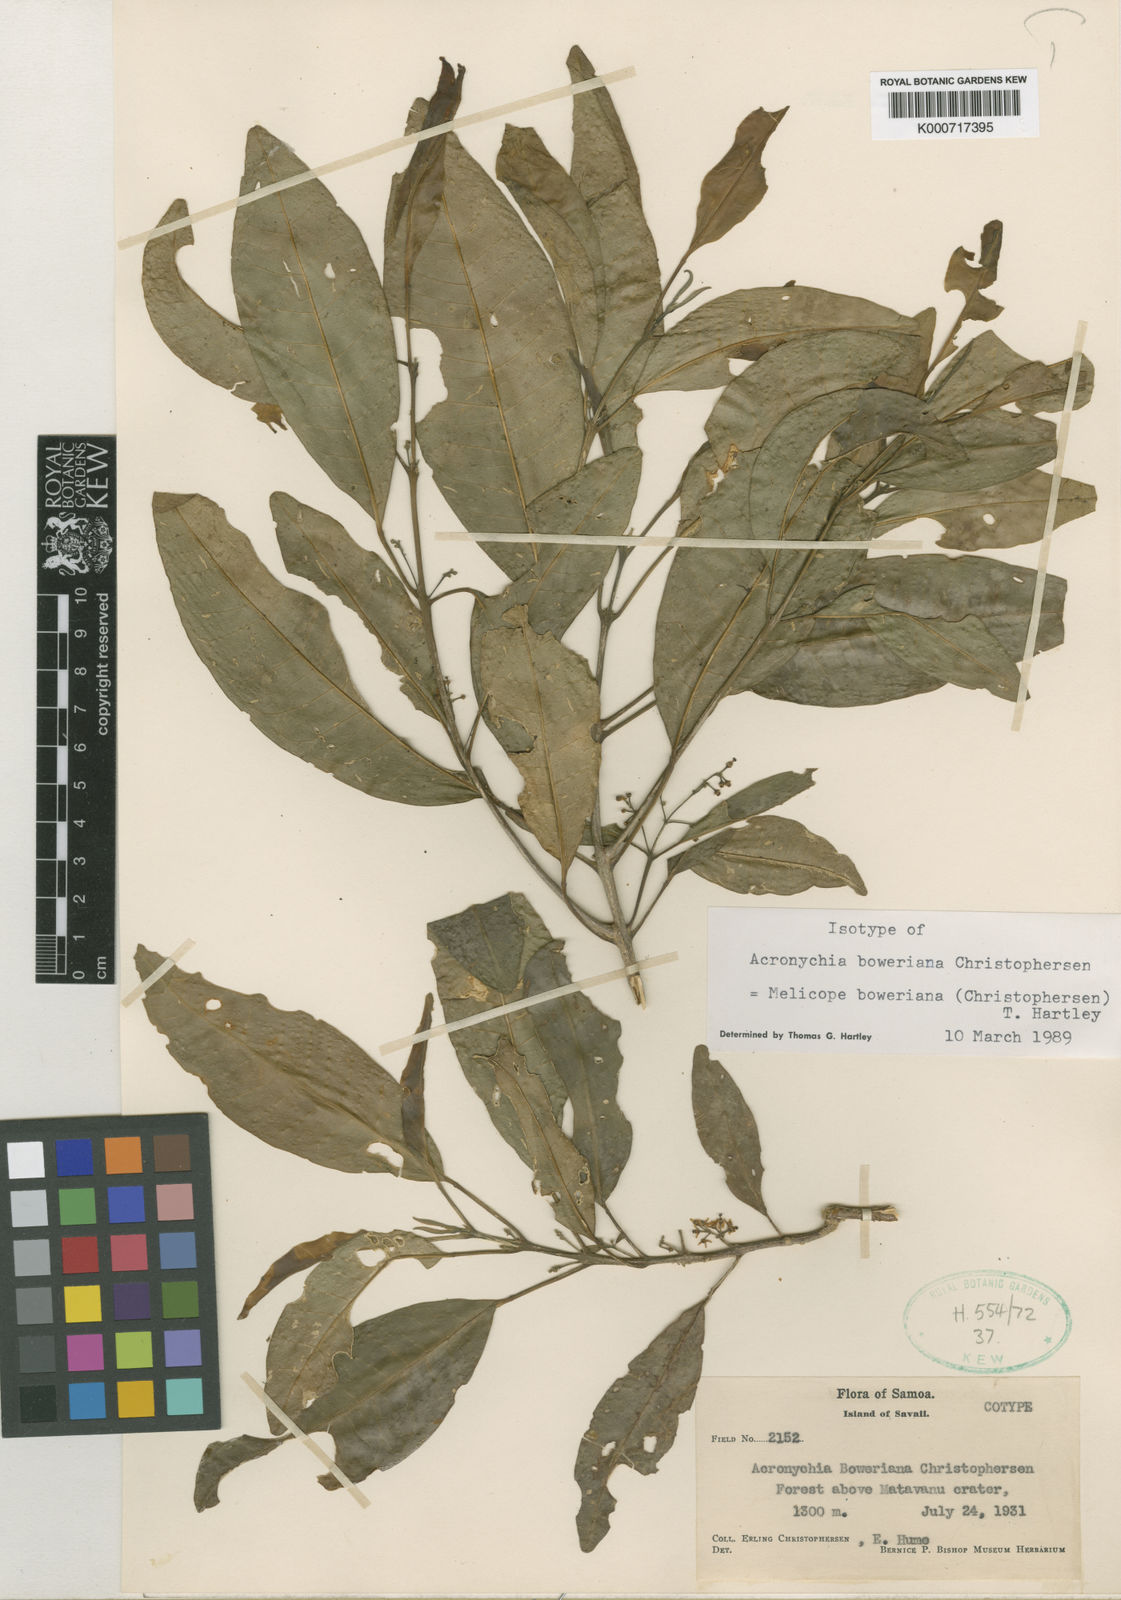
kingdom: Plantae
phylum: Tracheophyta
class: Magnoliopsida
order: Sapindales
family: Rutaceae
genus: Melicope
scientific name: Melicope boweriana
